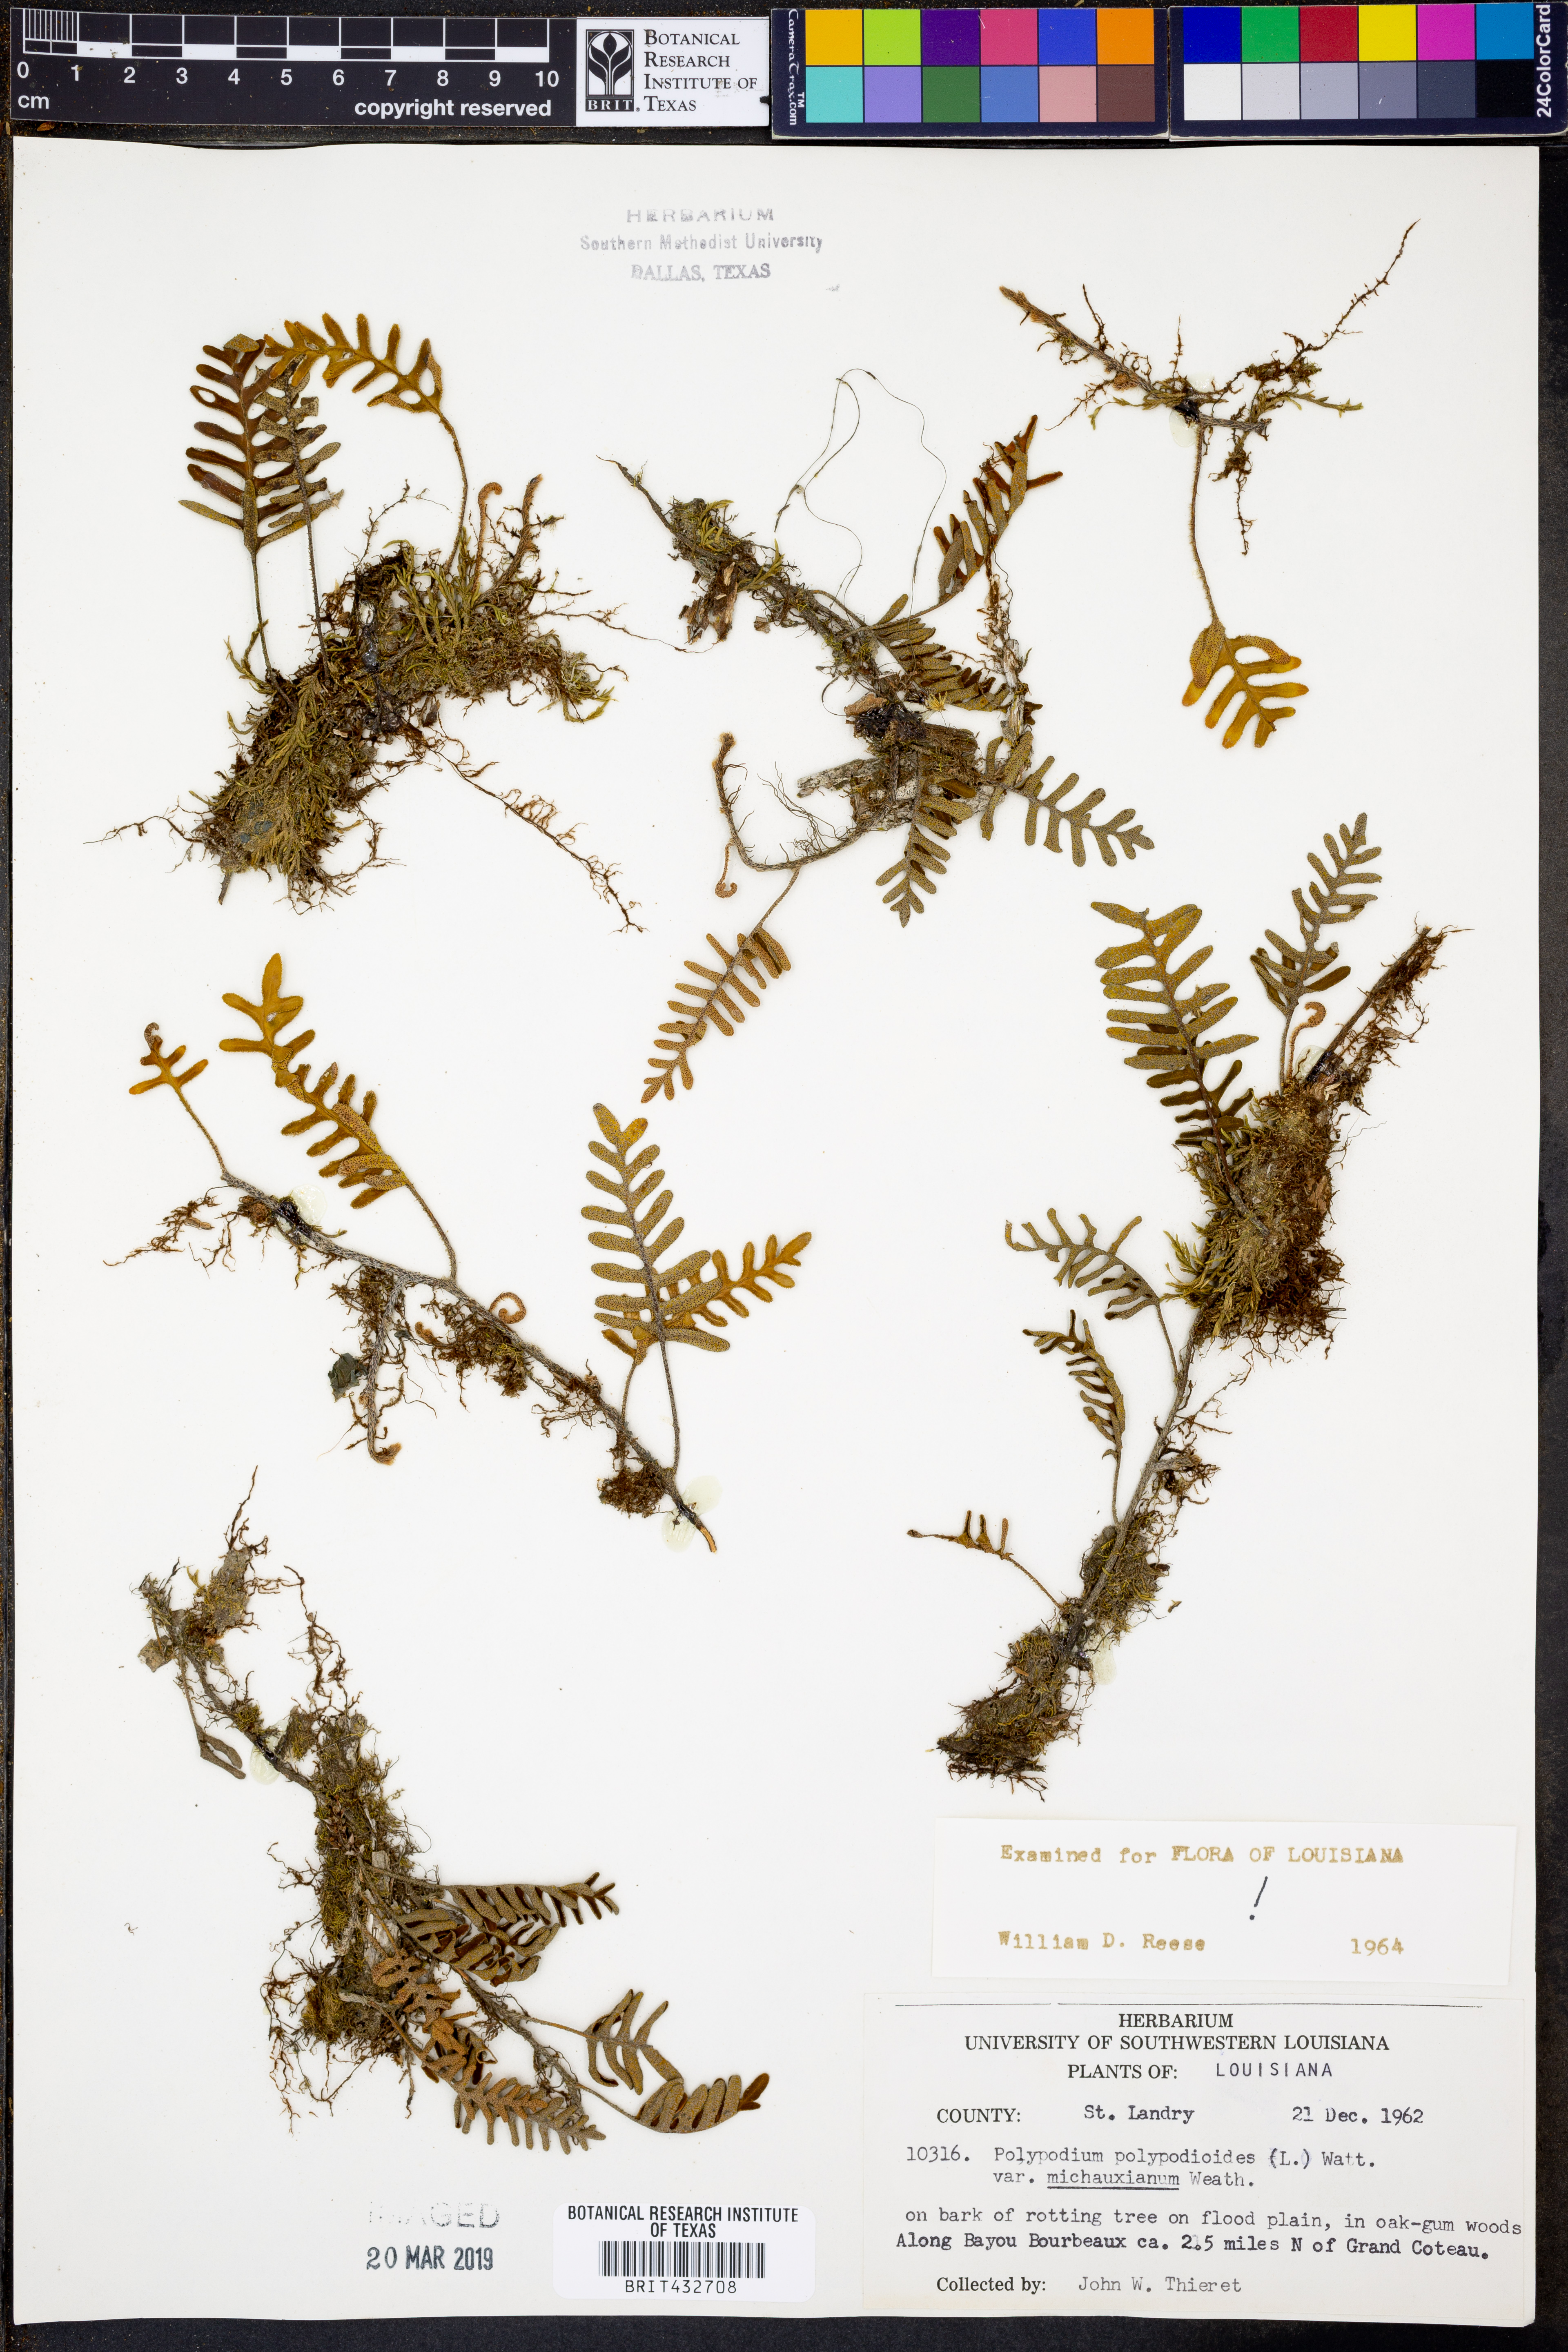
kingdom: Plantae
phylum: Tracheophyta
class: Polypodiopsida
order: Polypodiales
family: Polypodiaceae
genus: Pleopeltis
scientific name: Pleopeltis michauxiana
